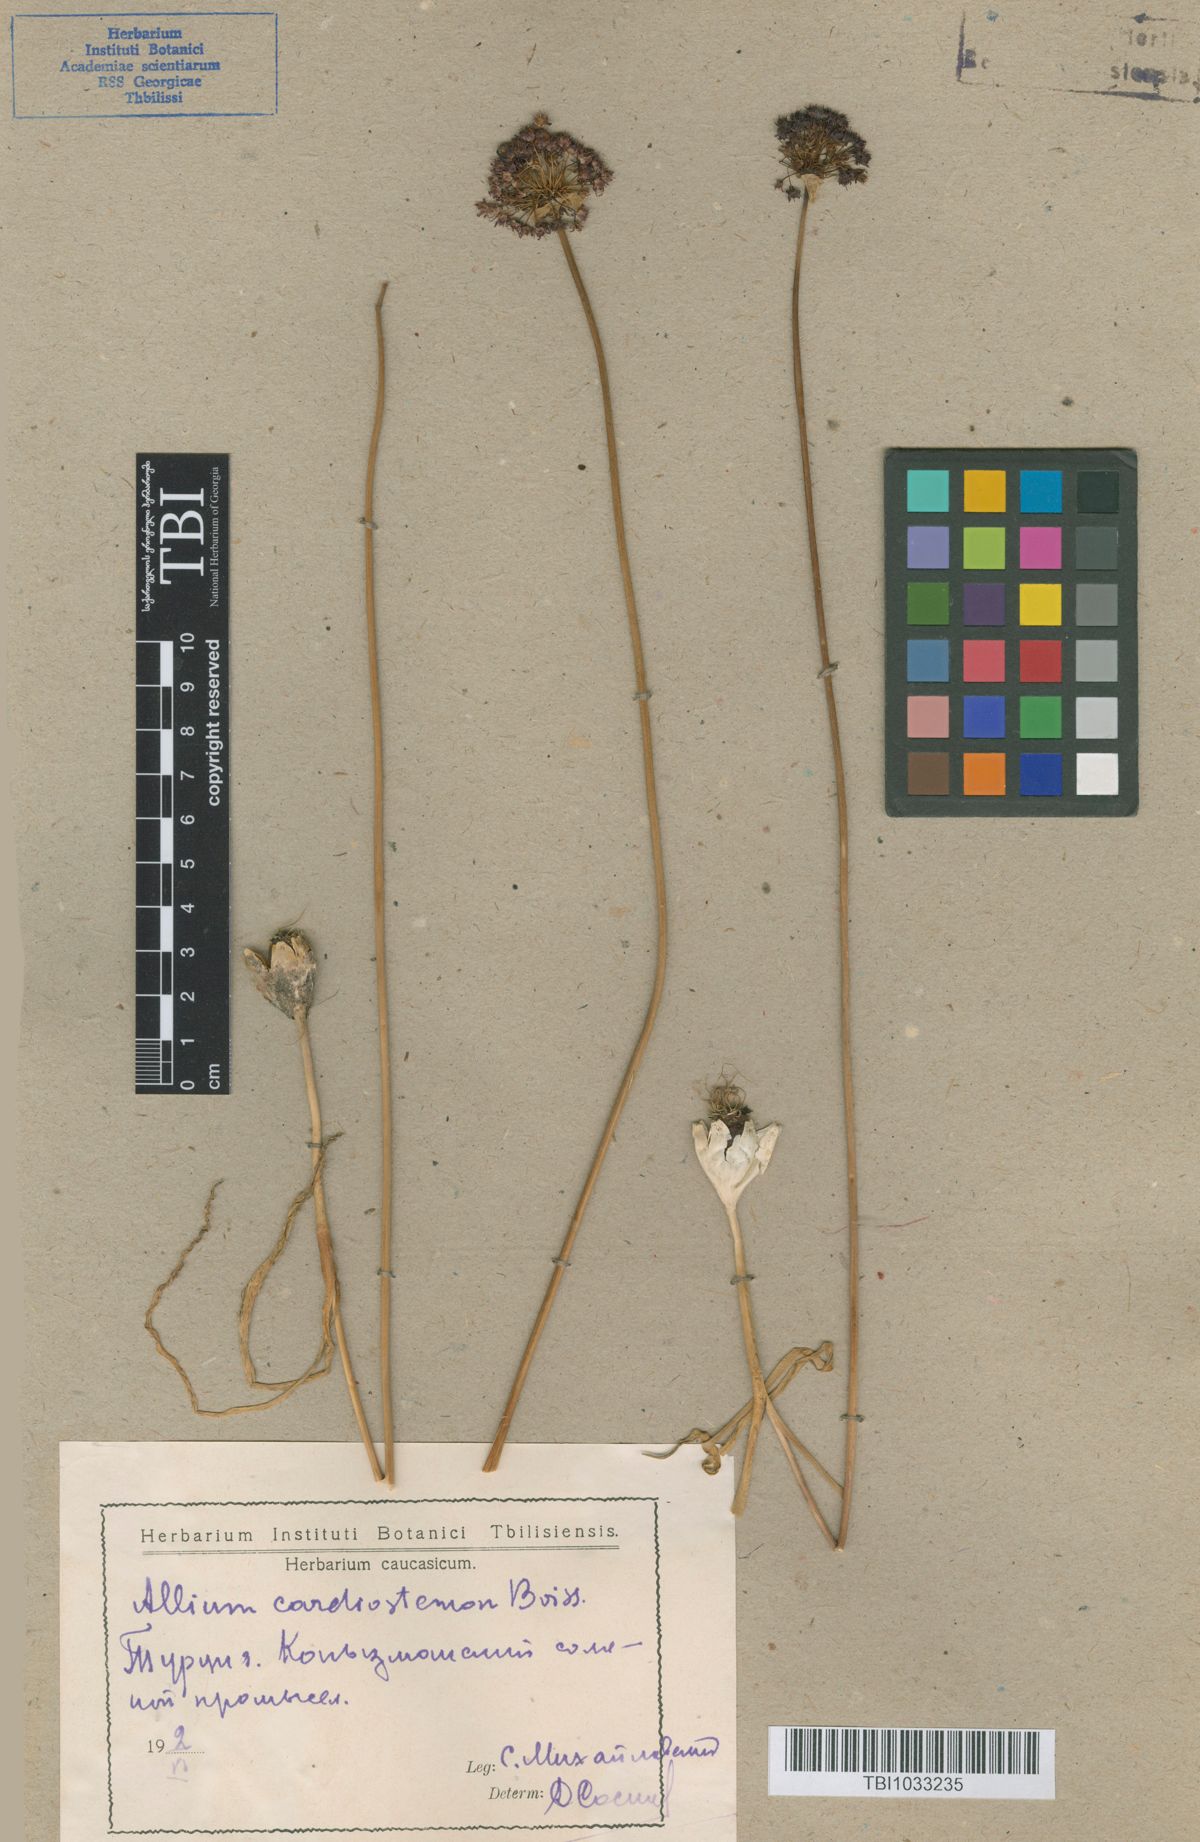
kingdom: Plantae
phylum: Tracheophyta
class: Liliopsida
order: Asparagales
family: Amaryllidaceae
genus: Allium
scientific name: Allium cardiostemon
